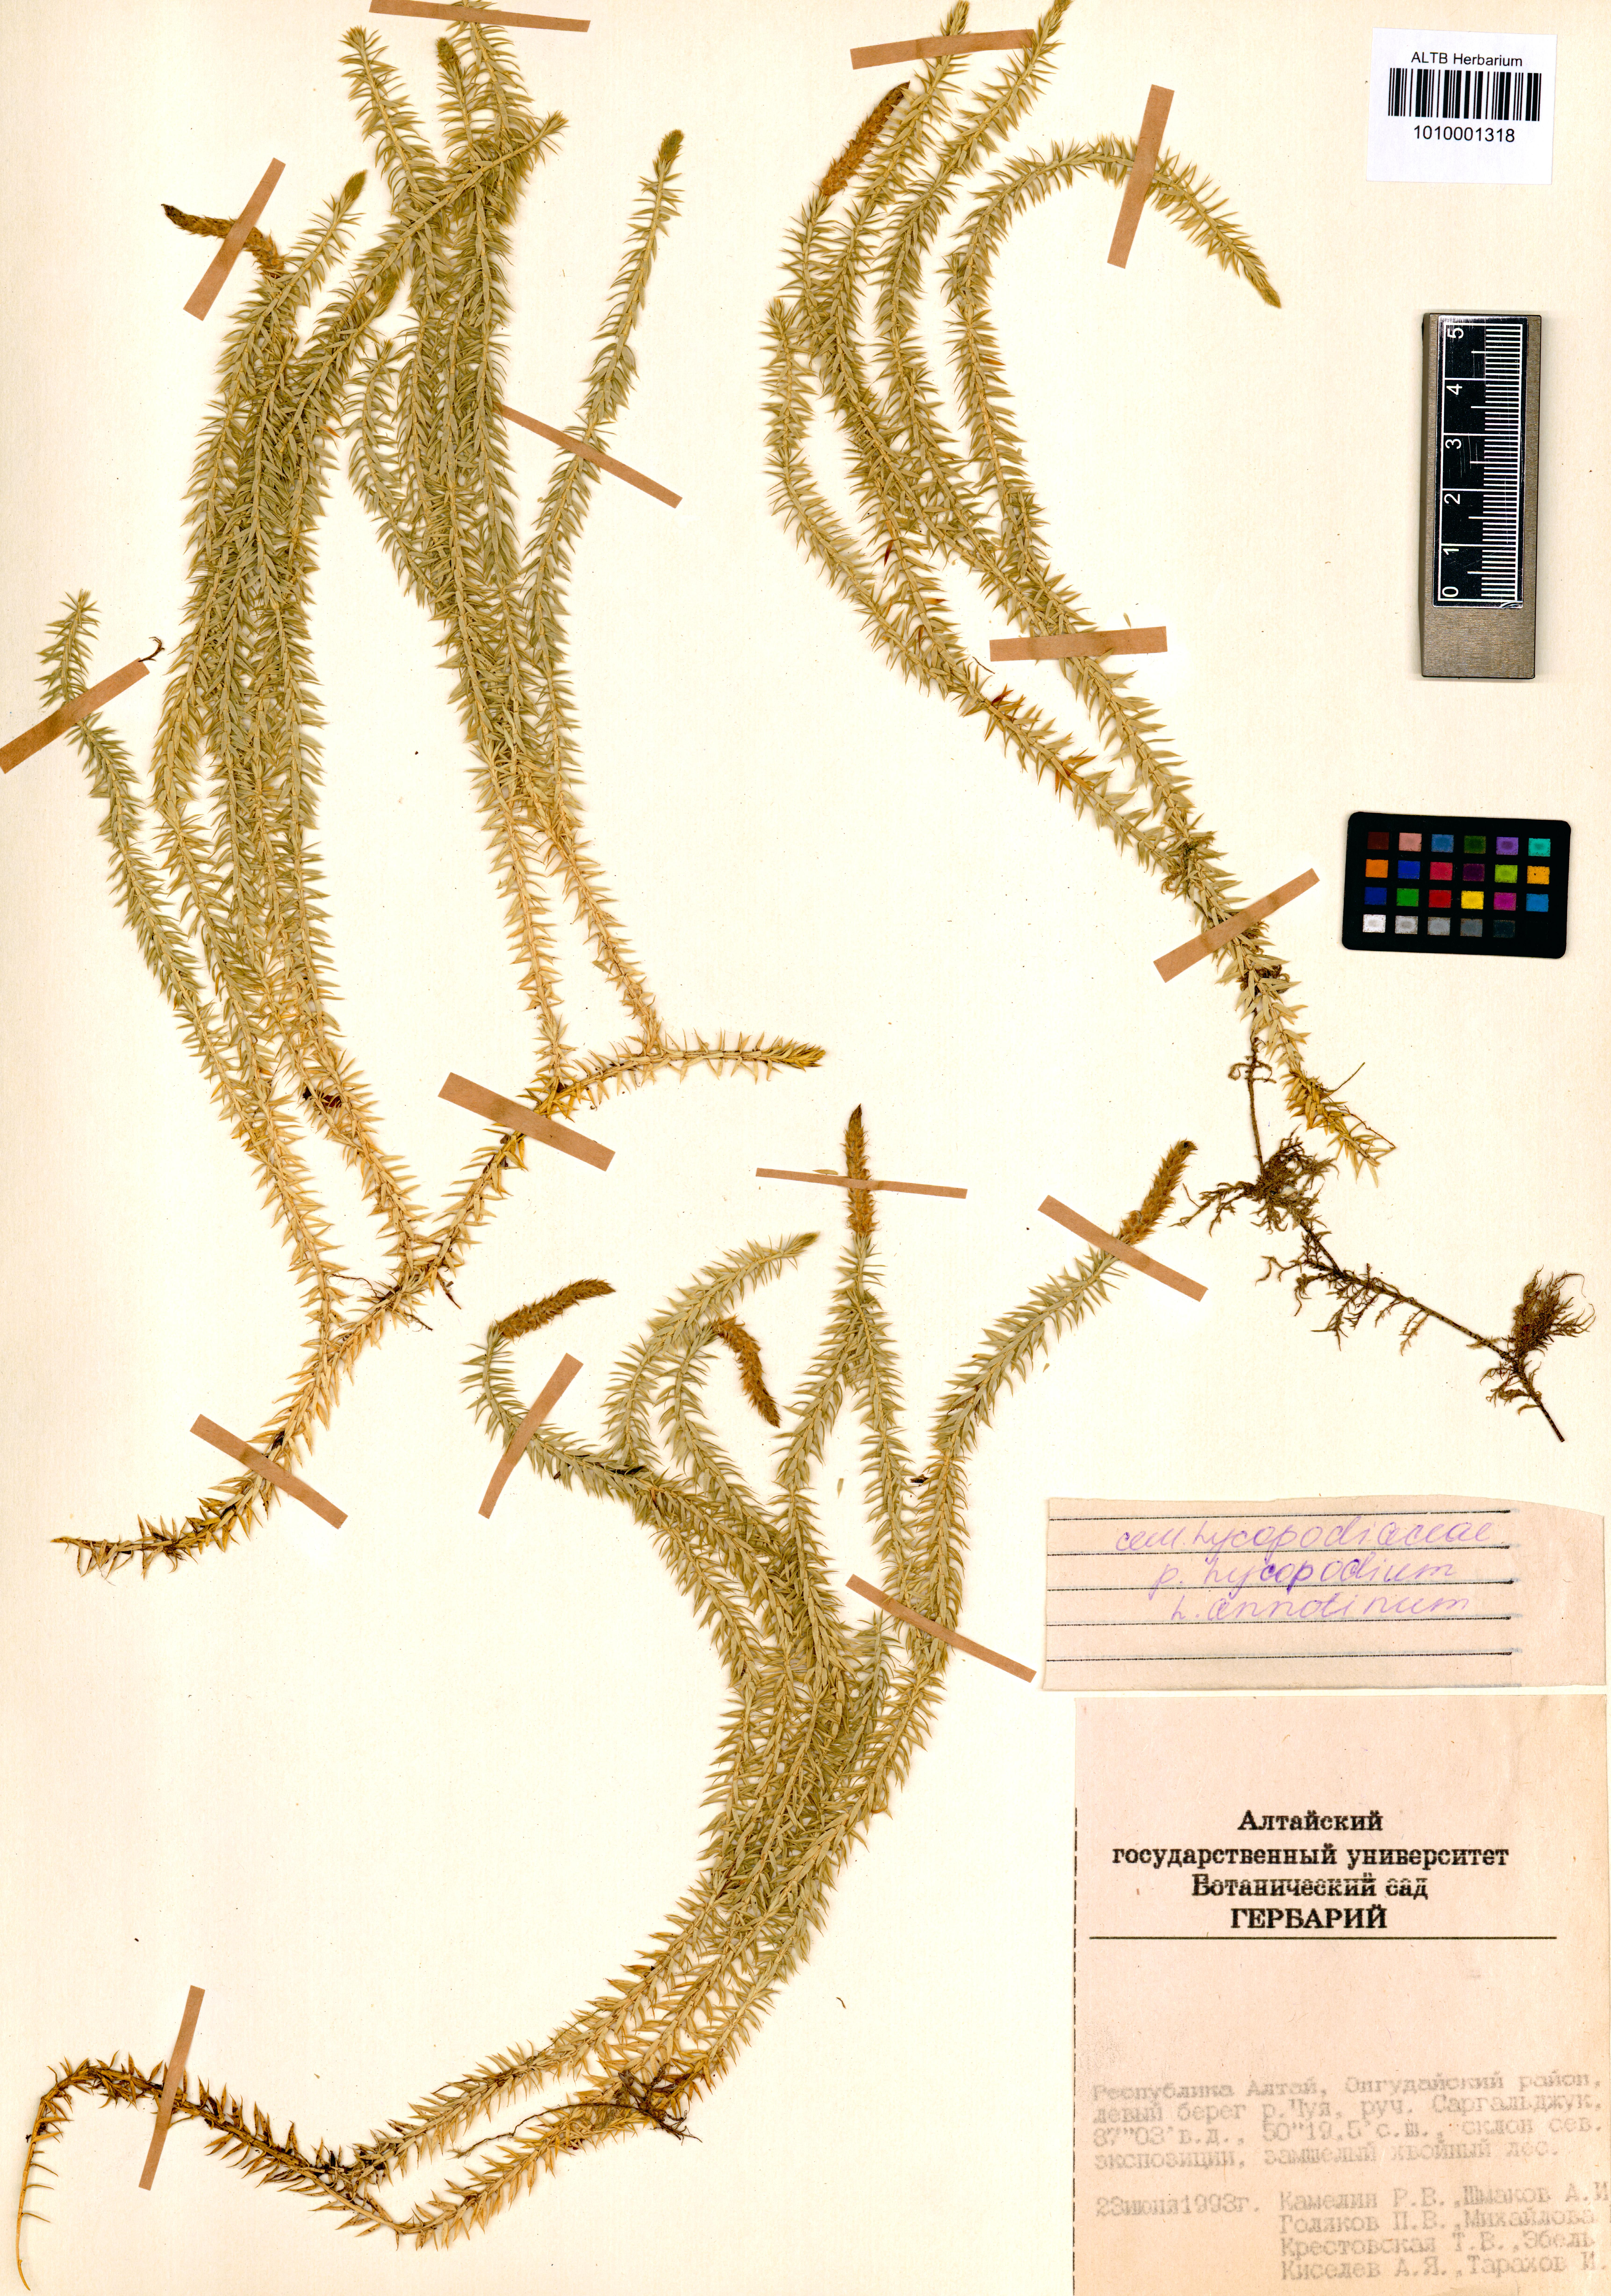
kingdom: Plantae
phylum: Tracheophyta
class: Lycopodiopsida
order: Lycopodiales
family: Lycopodiaceae
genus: Spinulum
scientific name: Spinulum annotinum
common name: Interrupted club-moss
